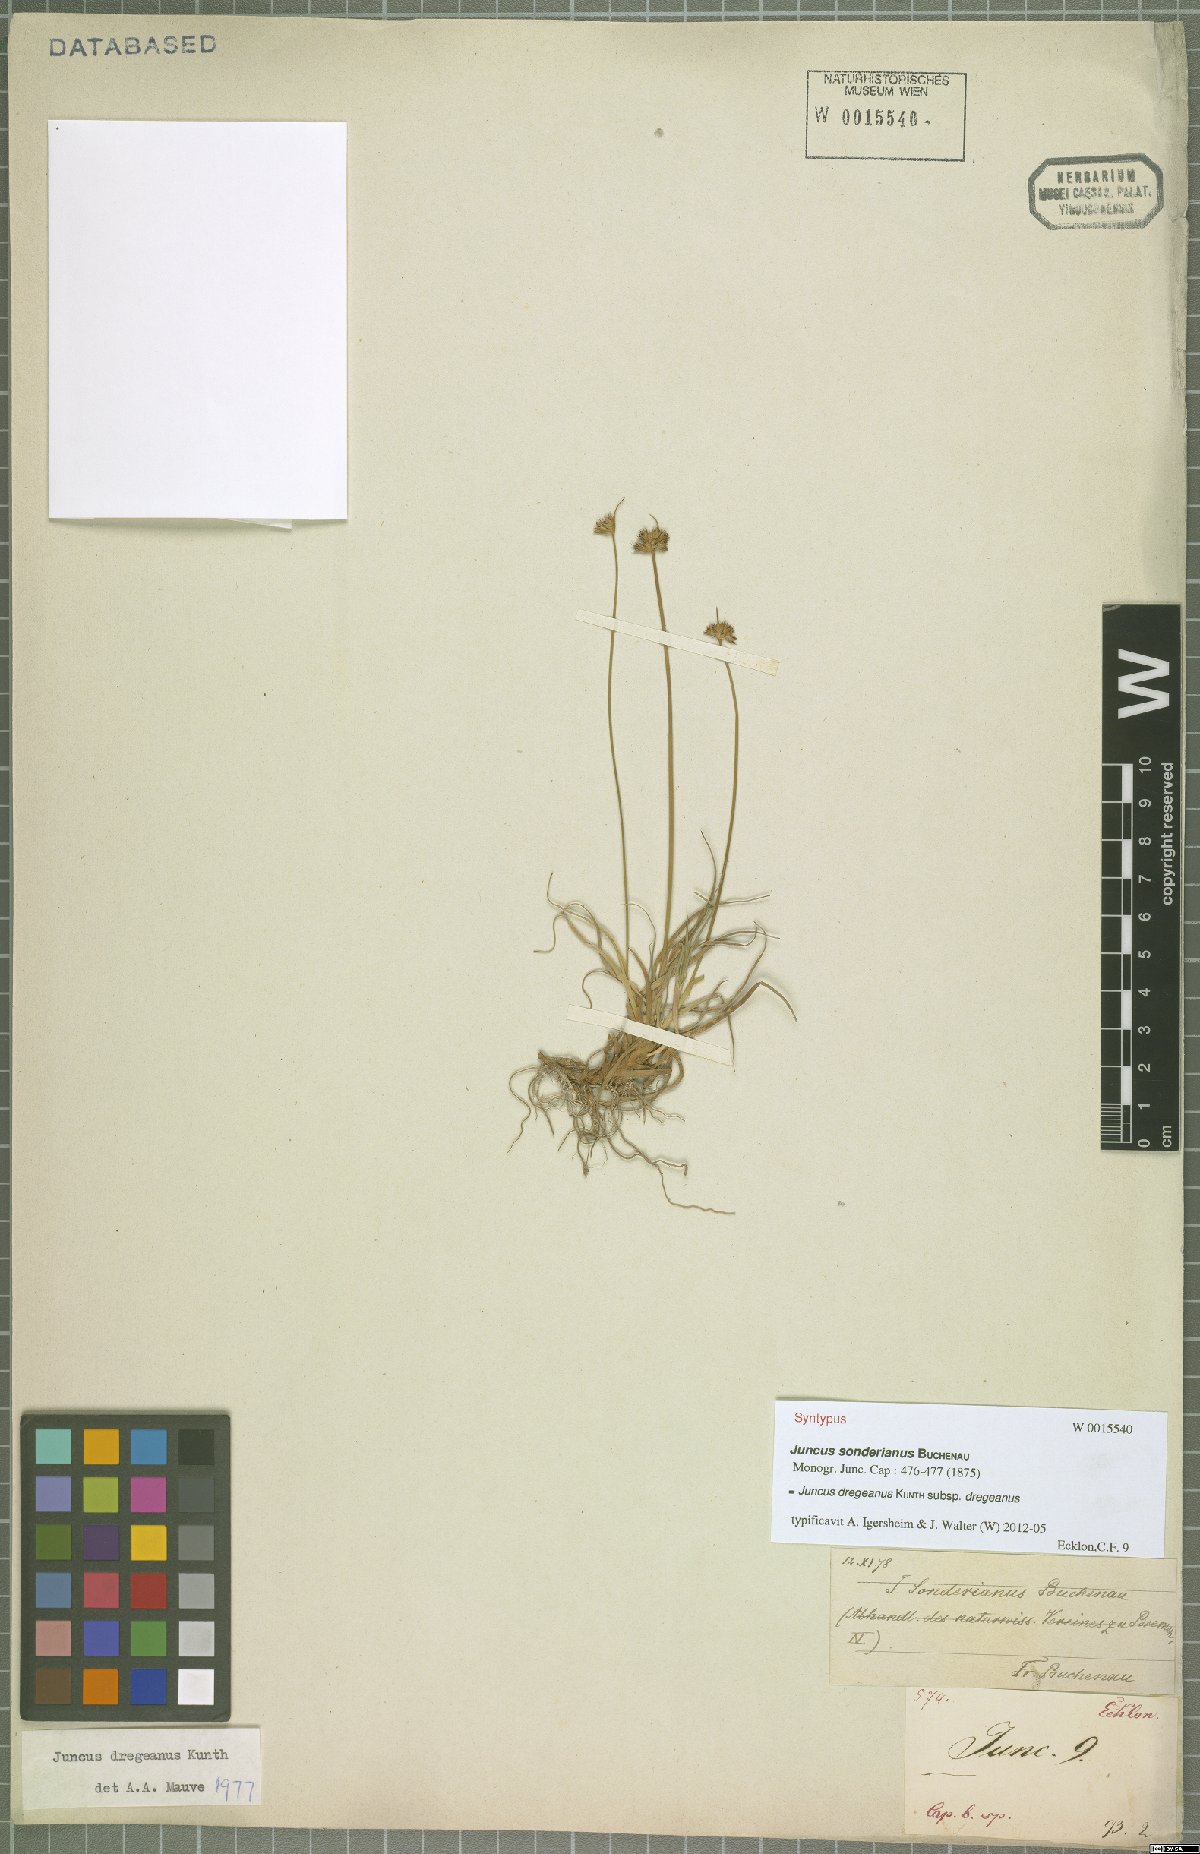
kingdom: Plantae
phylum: Tracheophyta
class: Liliopsida
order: Poales
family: Juncaceae
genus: Juncus
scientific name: Juncus dregeanus
